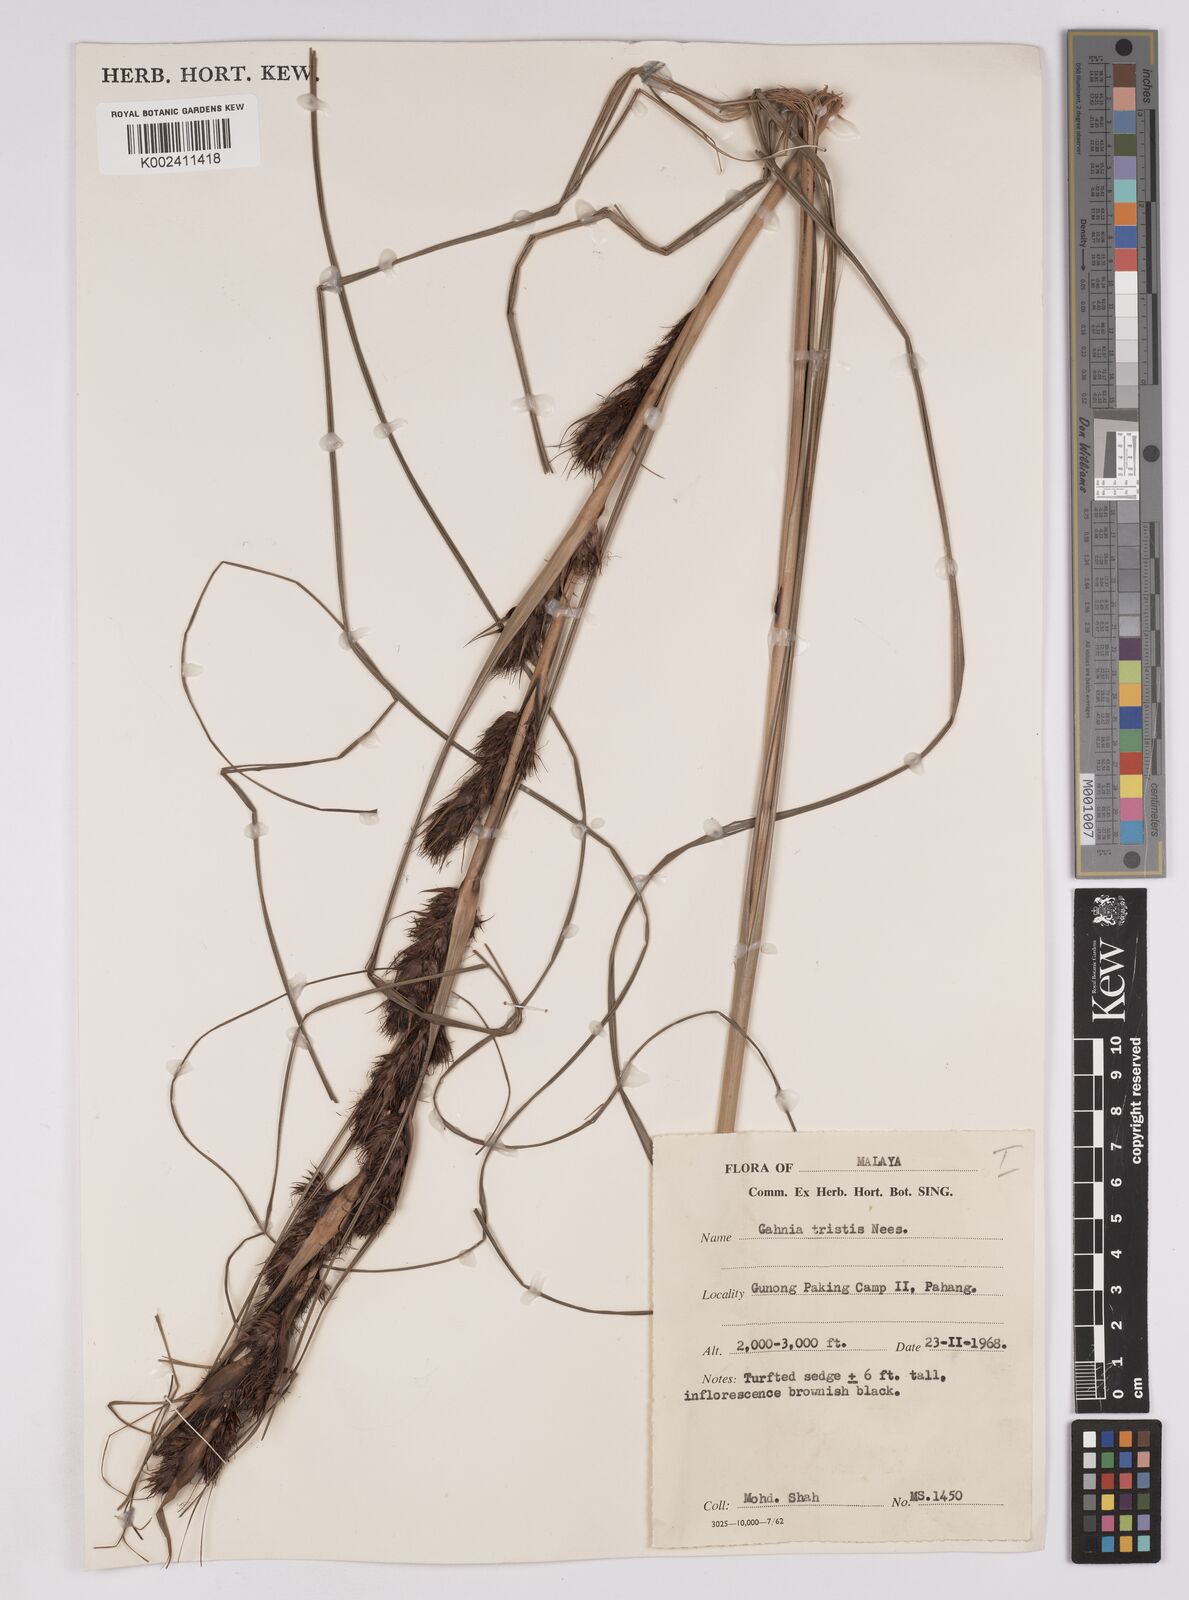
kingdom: Plantae
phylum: Tracheophyta
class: Liliopsida
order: Poales
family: Cyperaceae
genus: Gahnia
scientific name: Gahnia tristis
